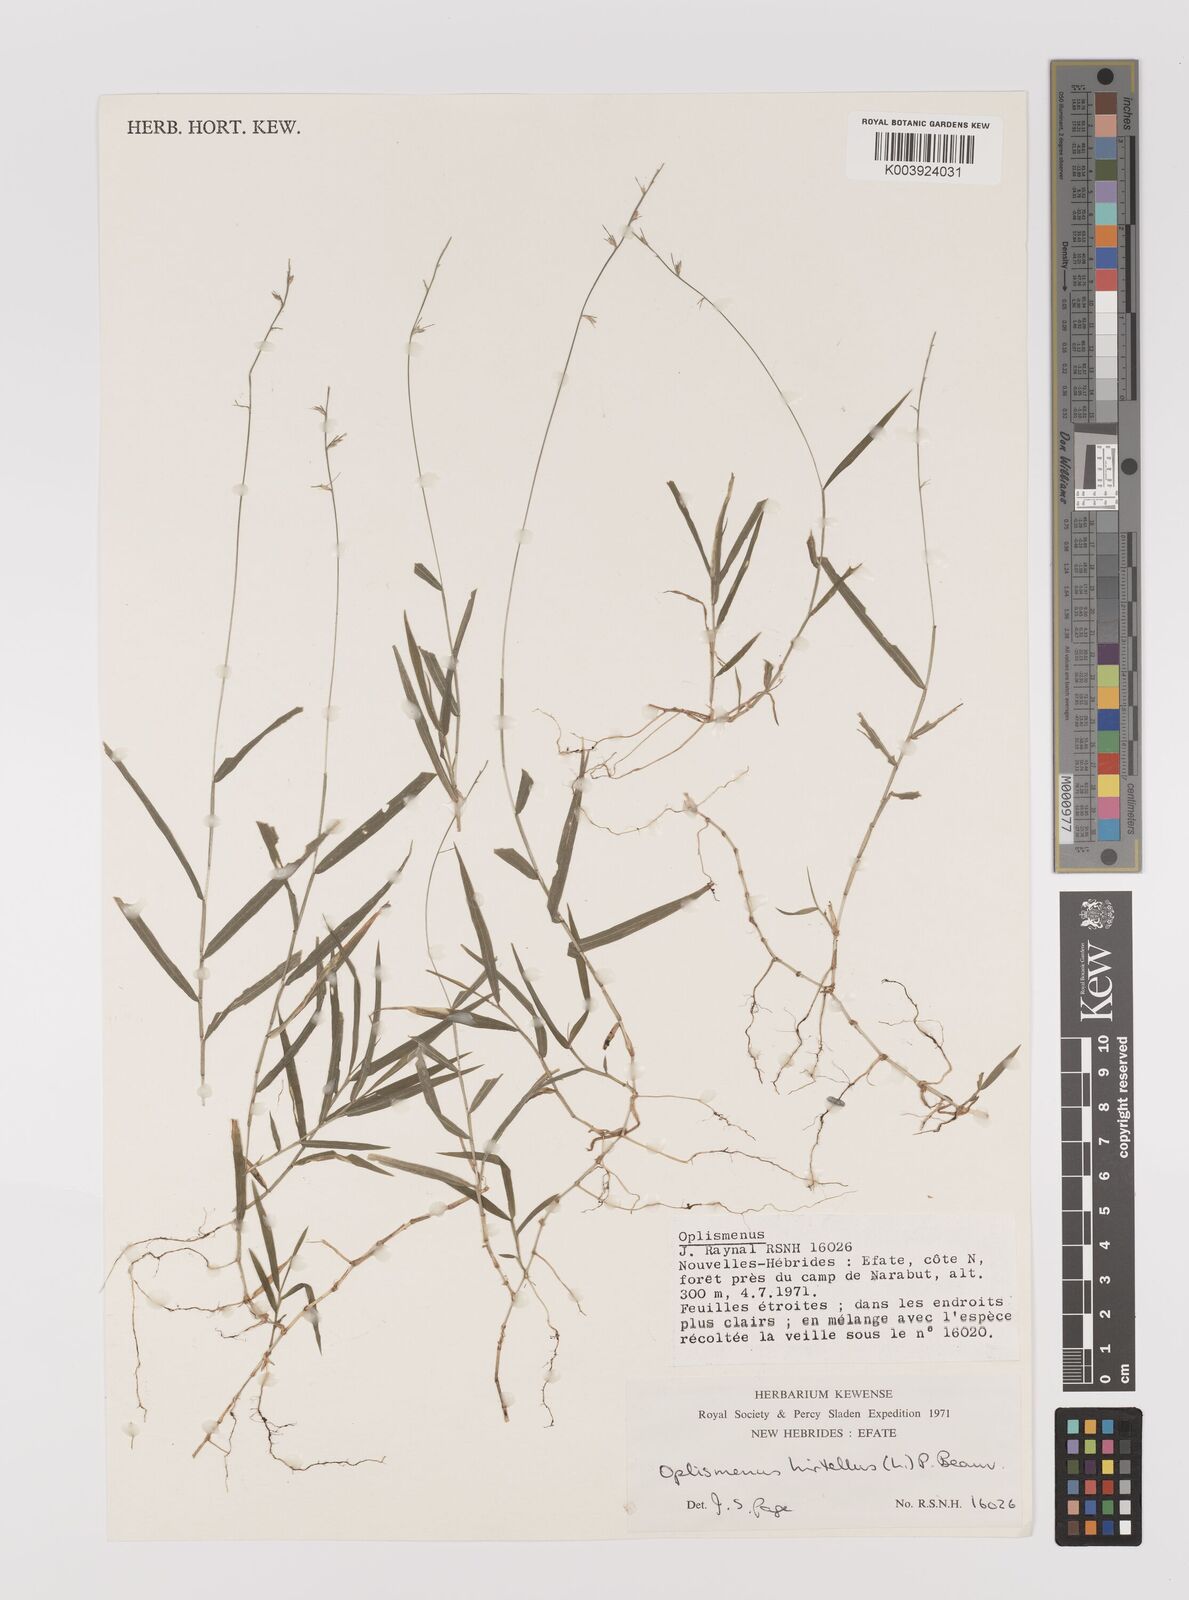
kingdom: Plantae
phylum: Tracheophyta
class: Liliopsida
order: Poales
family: Poaceae
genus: Oplismenus
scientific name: Oplismenus hirtellus
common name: Basketgrass
